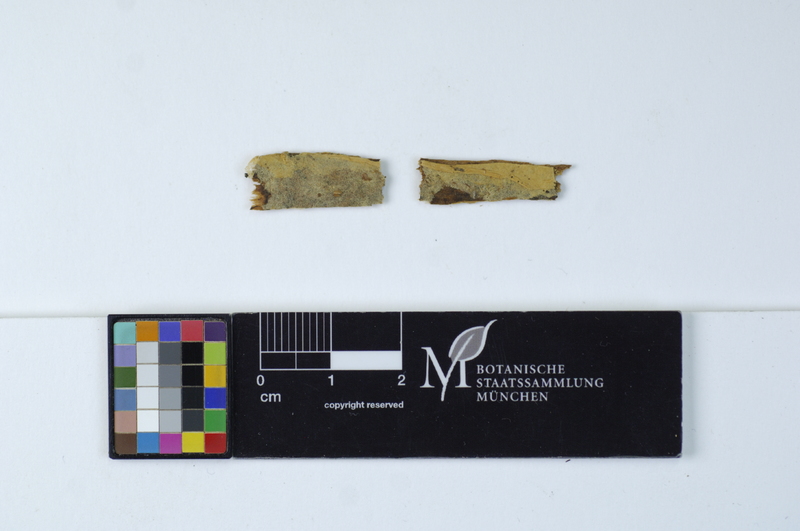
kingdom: Plantae
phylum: Tracheophyta
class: Magnoliopsida
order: Fagales
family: Fagaceae
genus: Fagus
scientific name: Fagus sylvatica
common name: Beech
